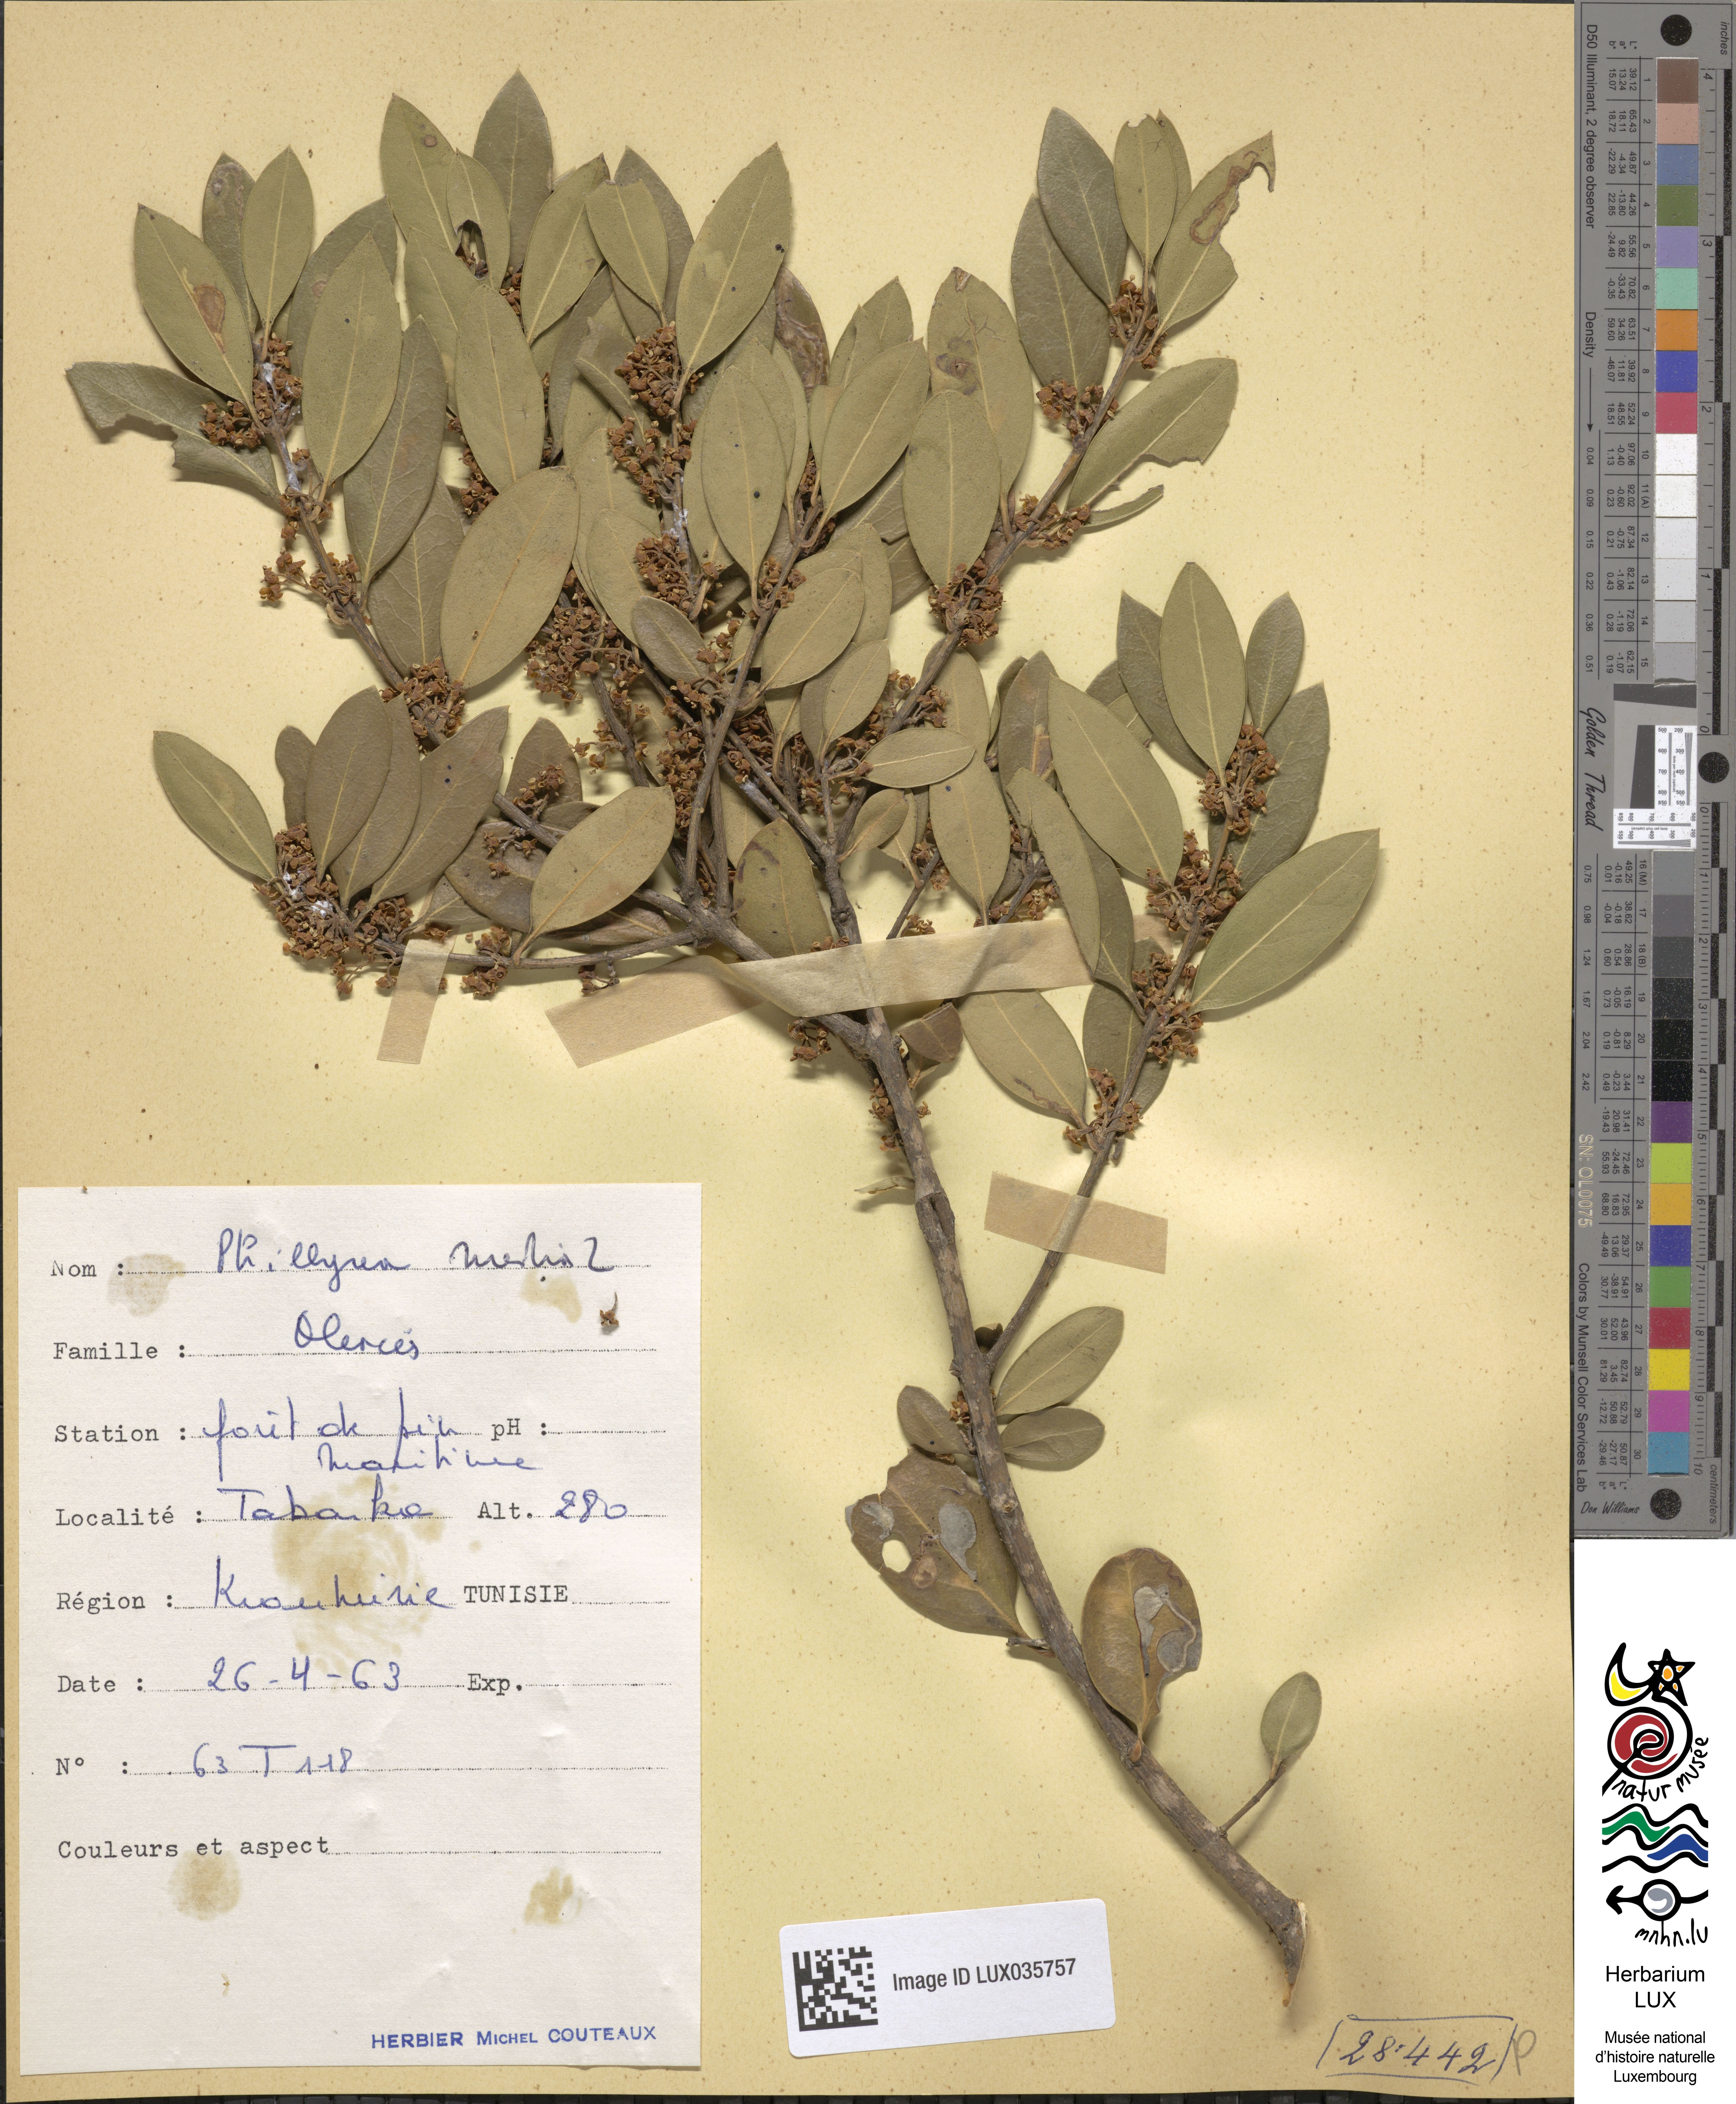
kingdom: Plantae
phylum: Tracheophyta
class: Magnoliopsida
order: Lamiales
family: Oleaceae
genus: Phillyrea
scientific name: Phillyrea latifolia
